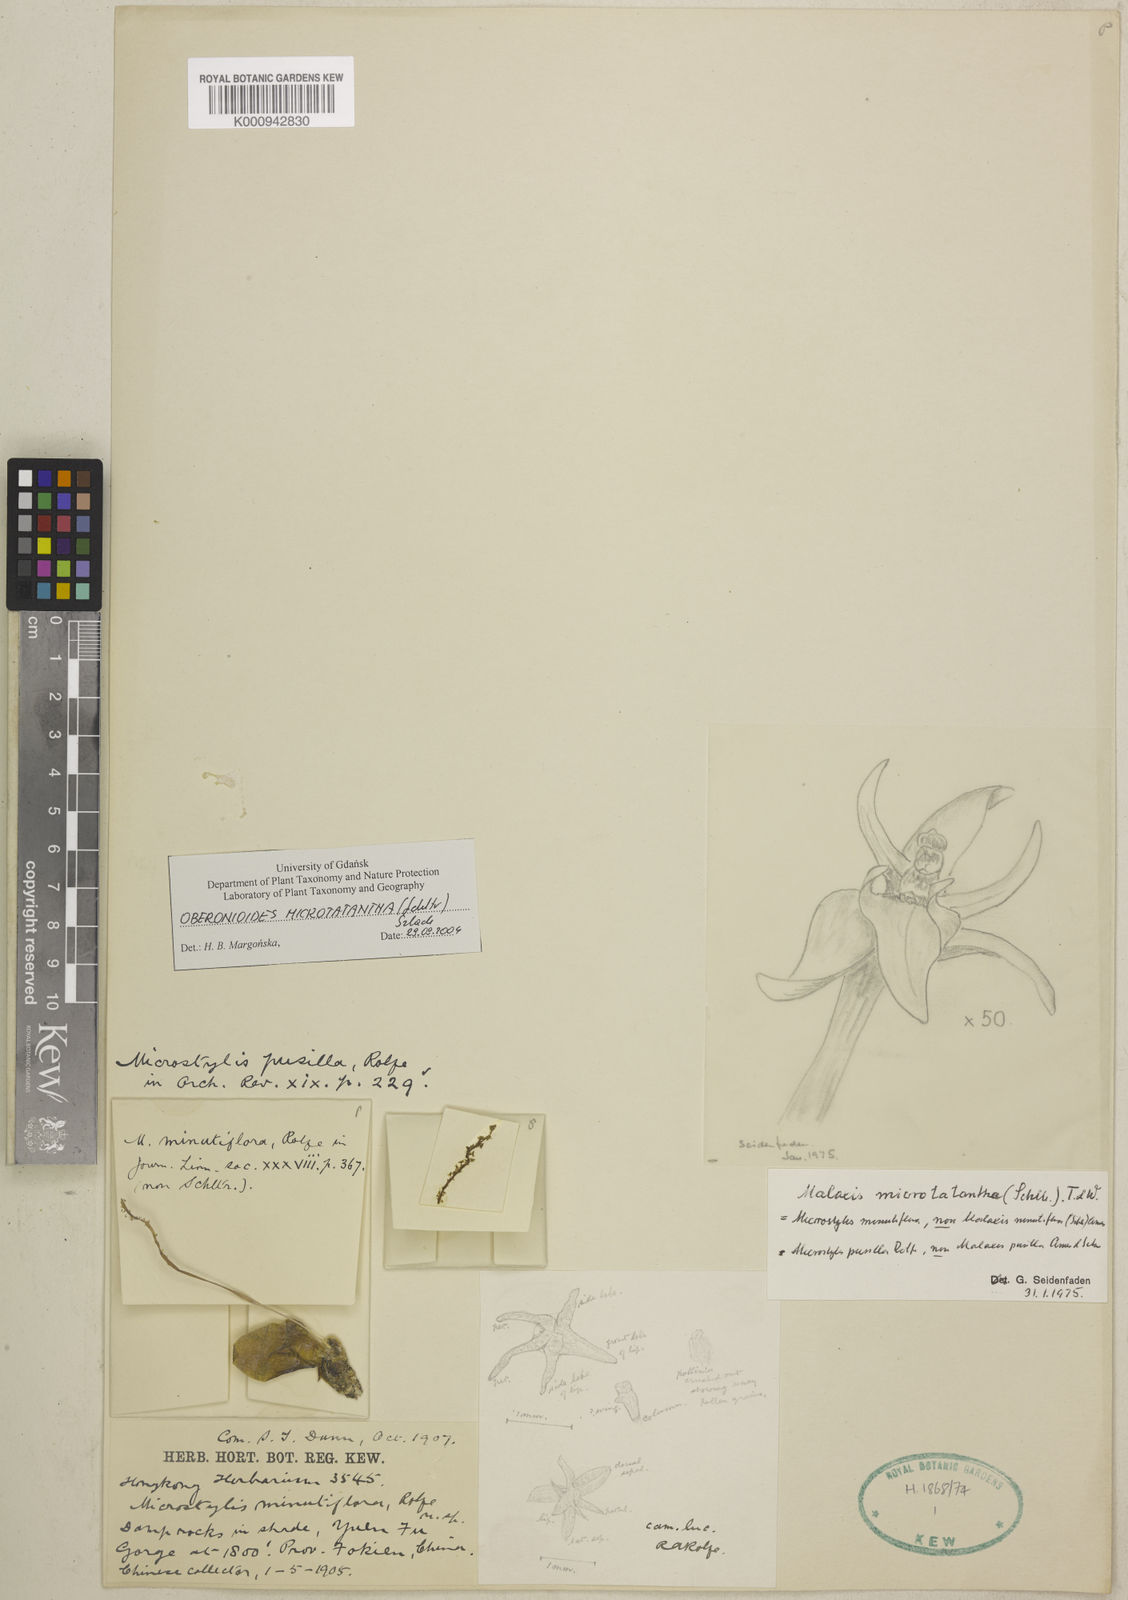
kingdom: Plantae
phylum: Tracheophyta
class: Liliopsida
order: Asparagales
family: Orchidaceae
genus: Tamayorkis
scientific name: Tamayorkis ehrenbergii
